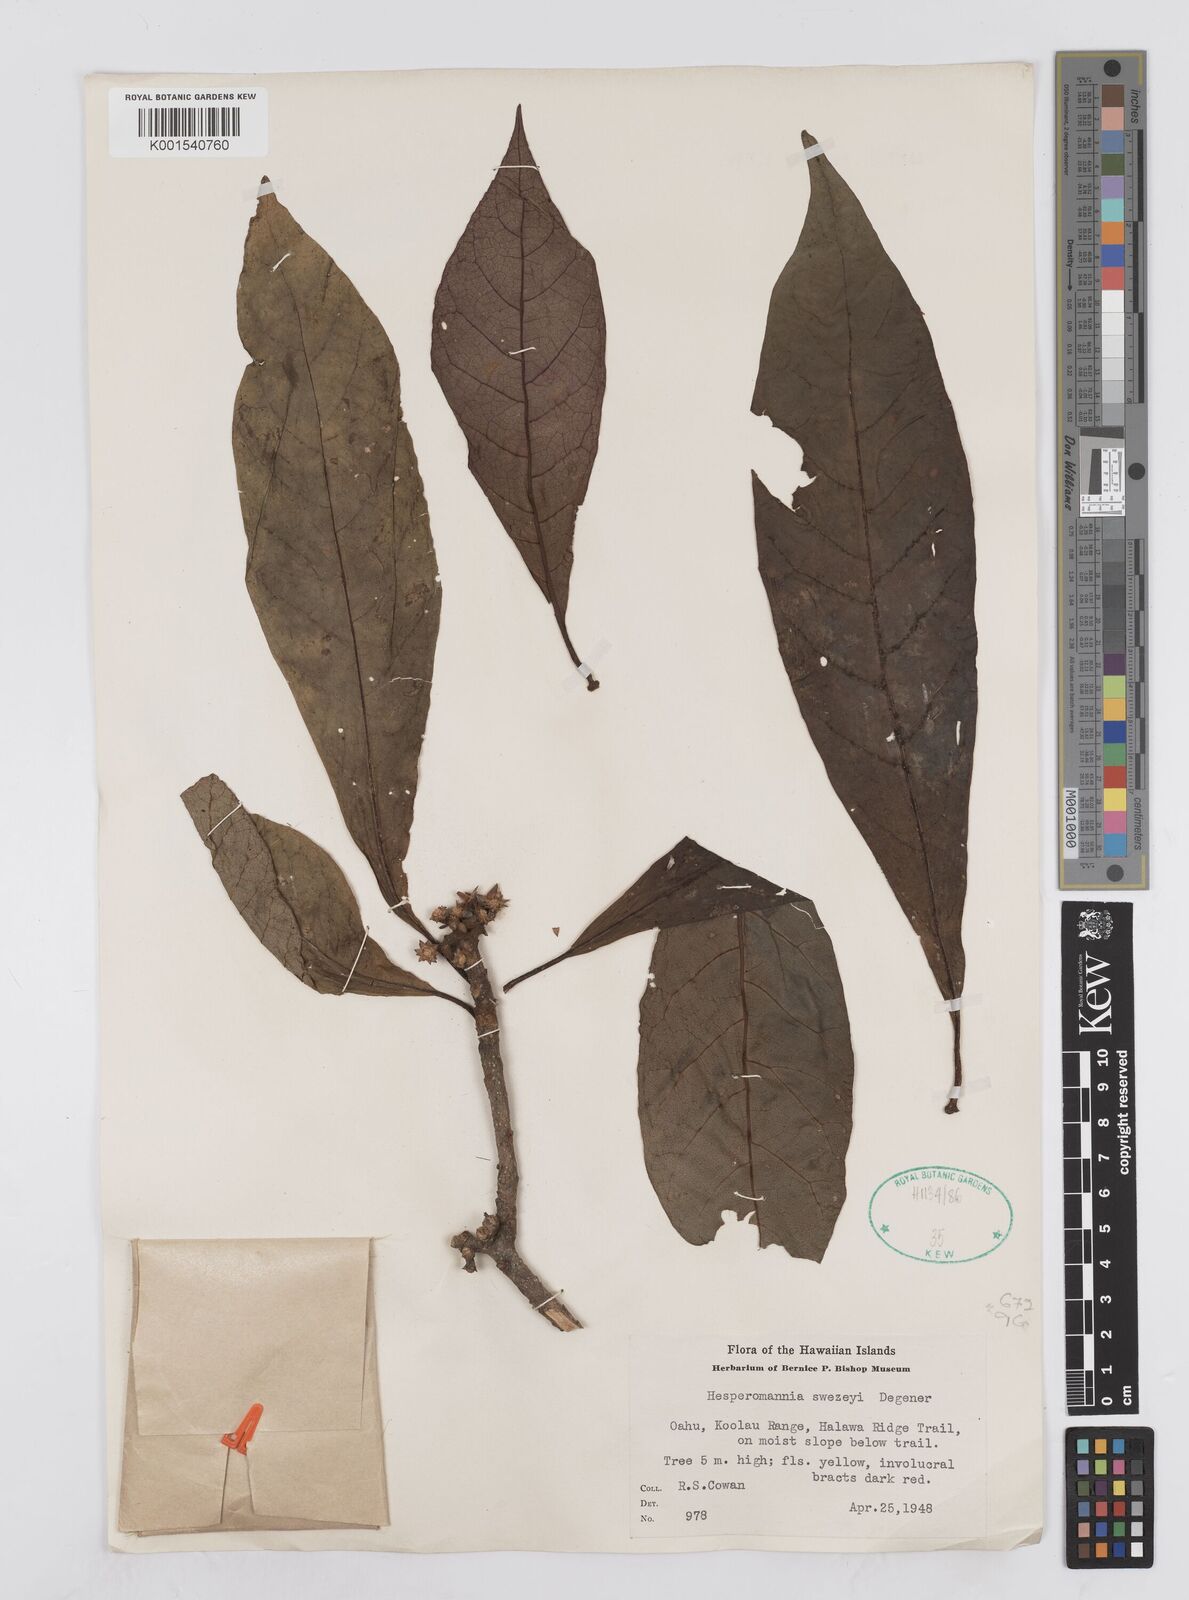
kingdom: Plantae
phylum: Tracheophyta
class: Magnoliopsida
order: Asterales
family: Asteraceae
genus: Hesperomannia
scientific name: Hesperomannia arborescens
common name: Lanai hesperomannia
